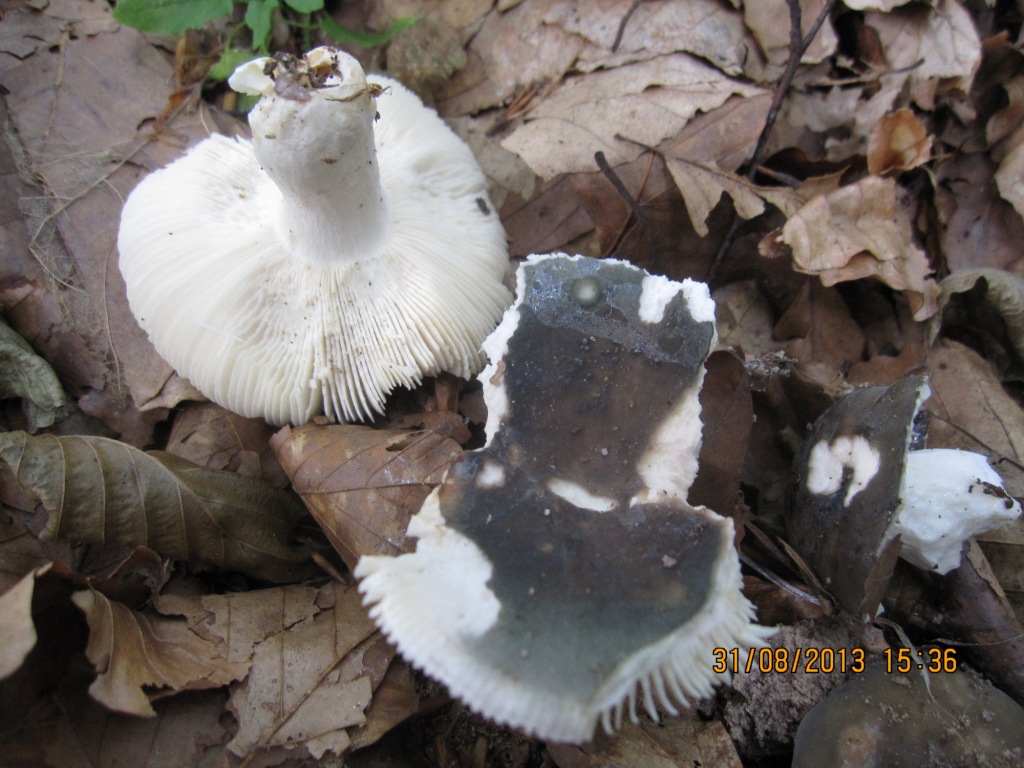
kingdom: Fungi
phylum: Basidiomycota
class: Agaricomycetes
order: Russulales
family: Russulaceae
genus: Russula
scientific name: Russula parazurea
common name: blågrå skørhat
